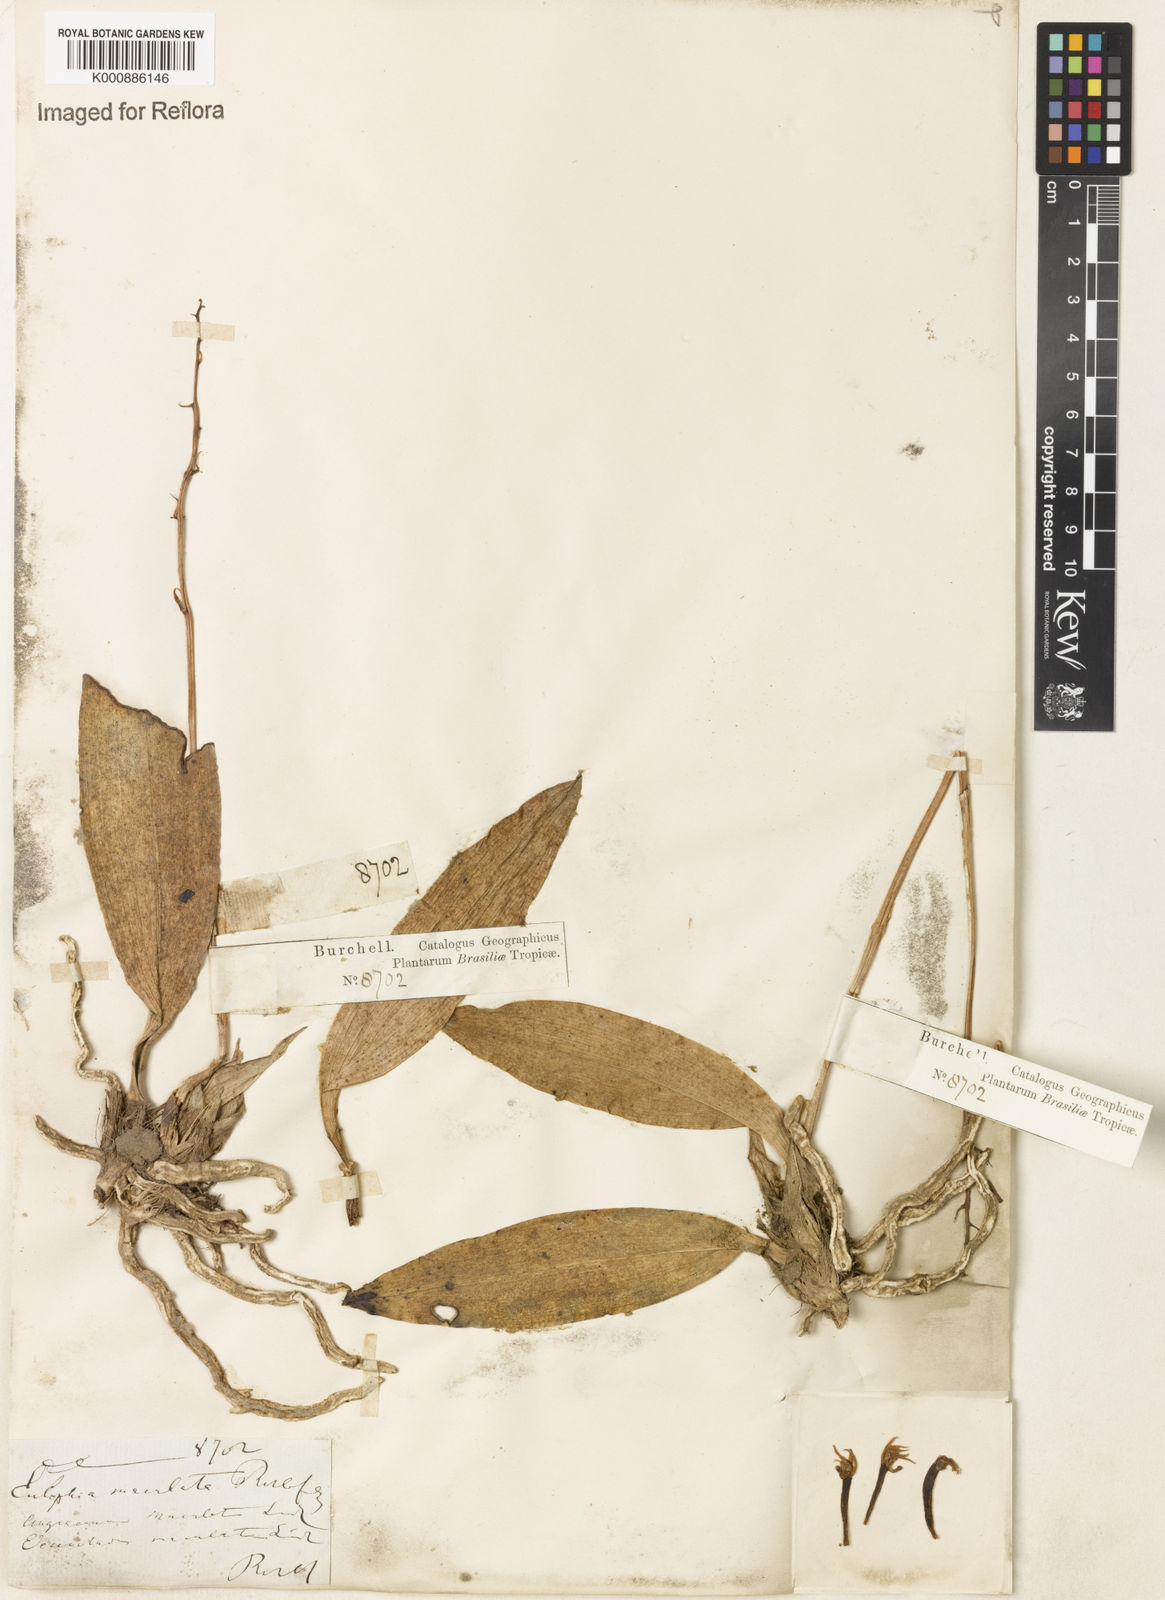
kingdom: Plantae
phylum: Tracheophyta
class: Liliopsida
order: Asparagales
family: Orchidaceae
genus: Eulophia
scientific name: Eulophia maculata
